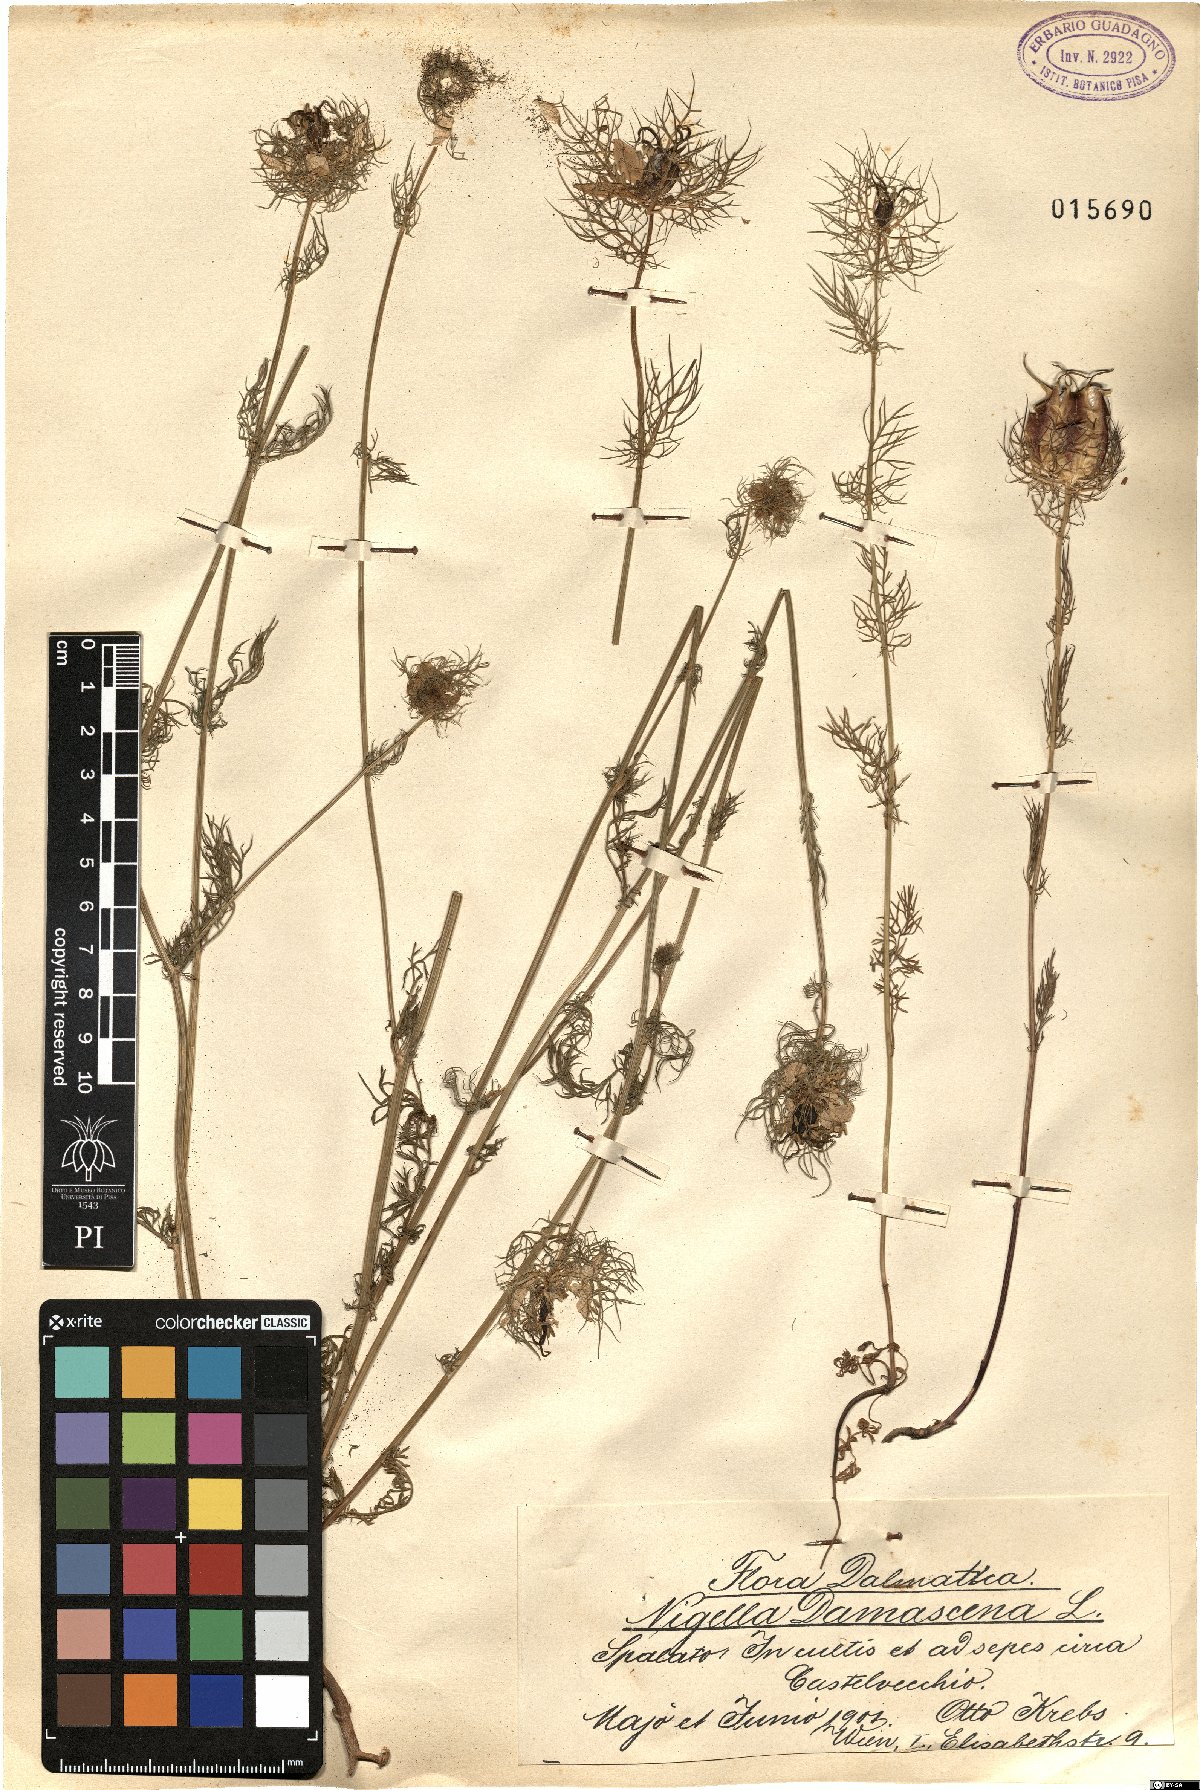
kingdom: Plantae
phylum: Tracheophyta
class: Magnoliopsida
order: Ranunculales
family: Ranunculaceae
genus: Nigella
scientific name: Nigella damascena
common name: Love-in-a-mist
